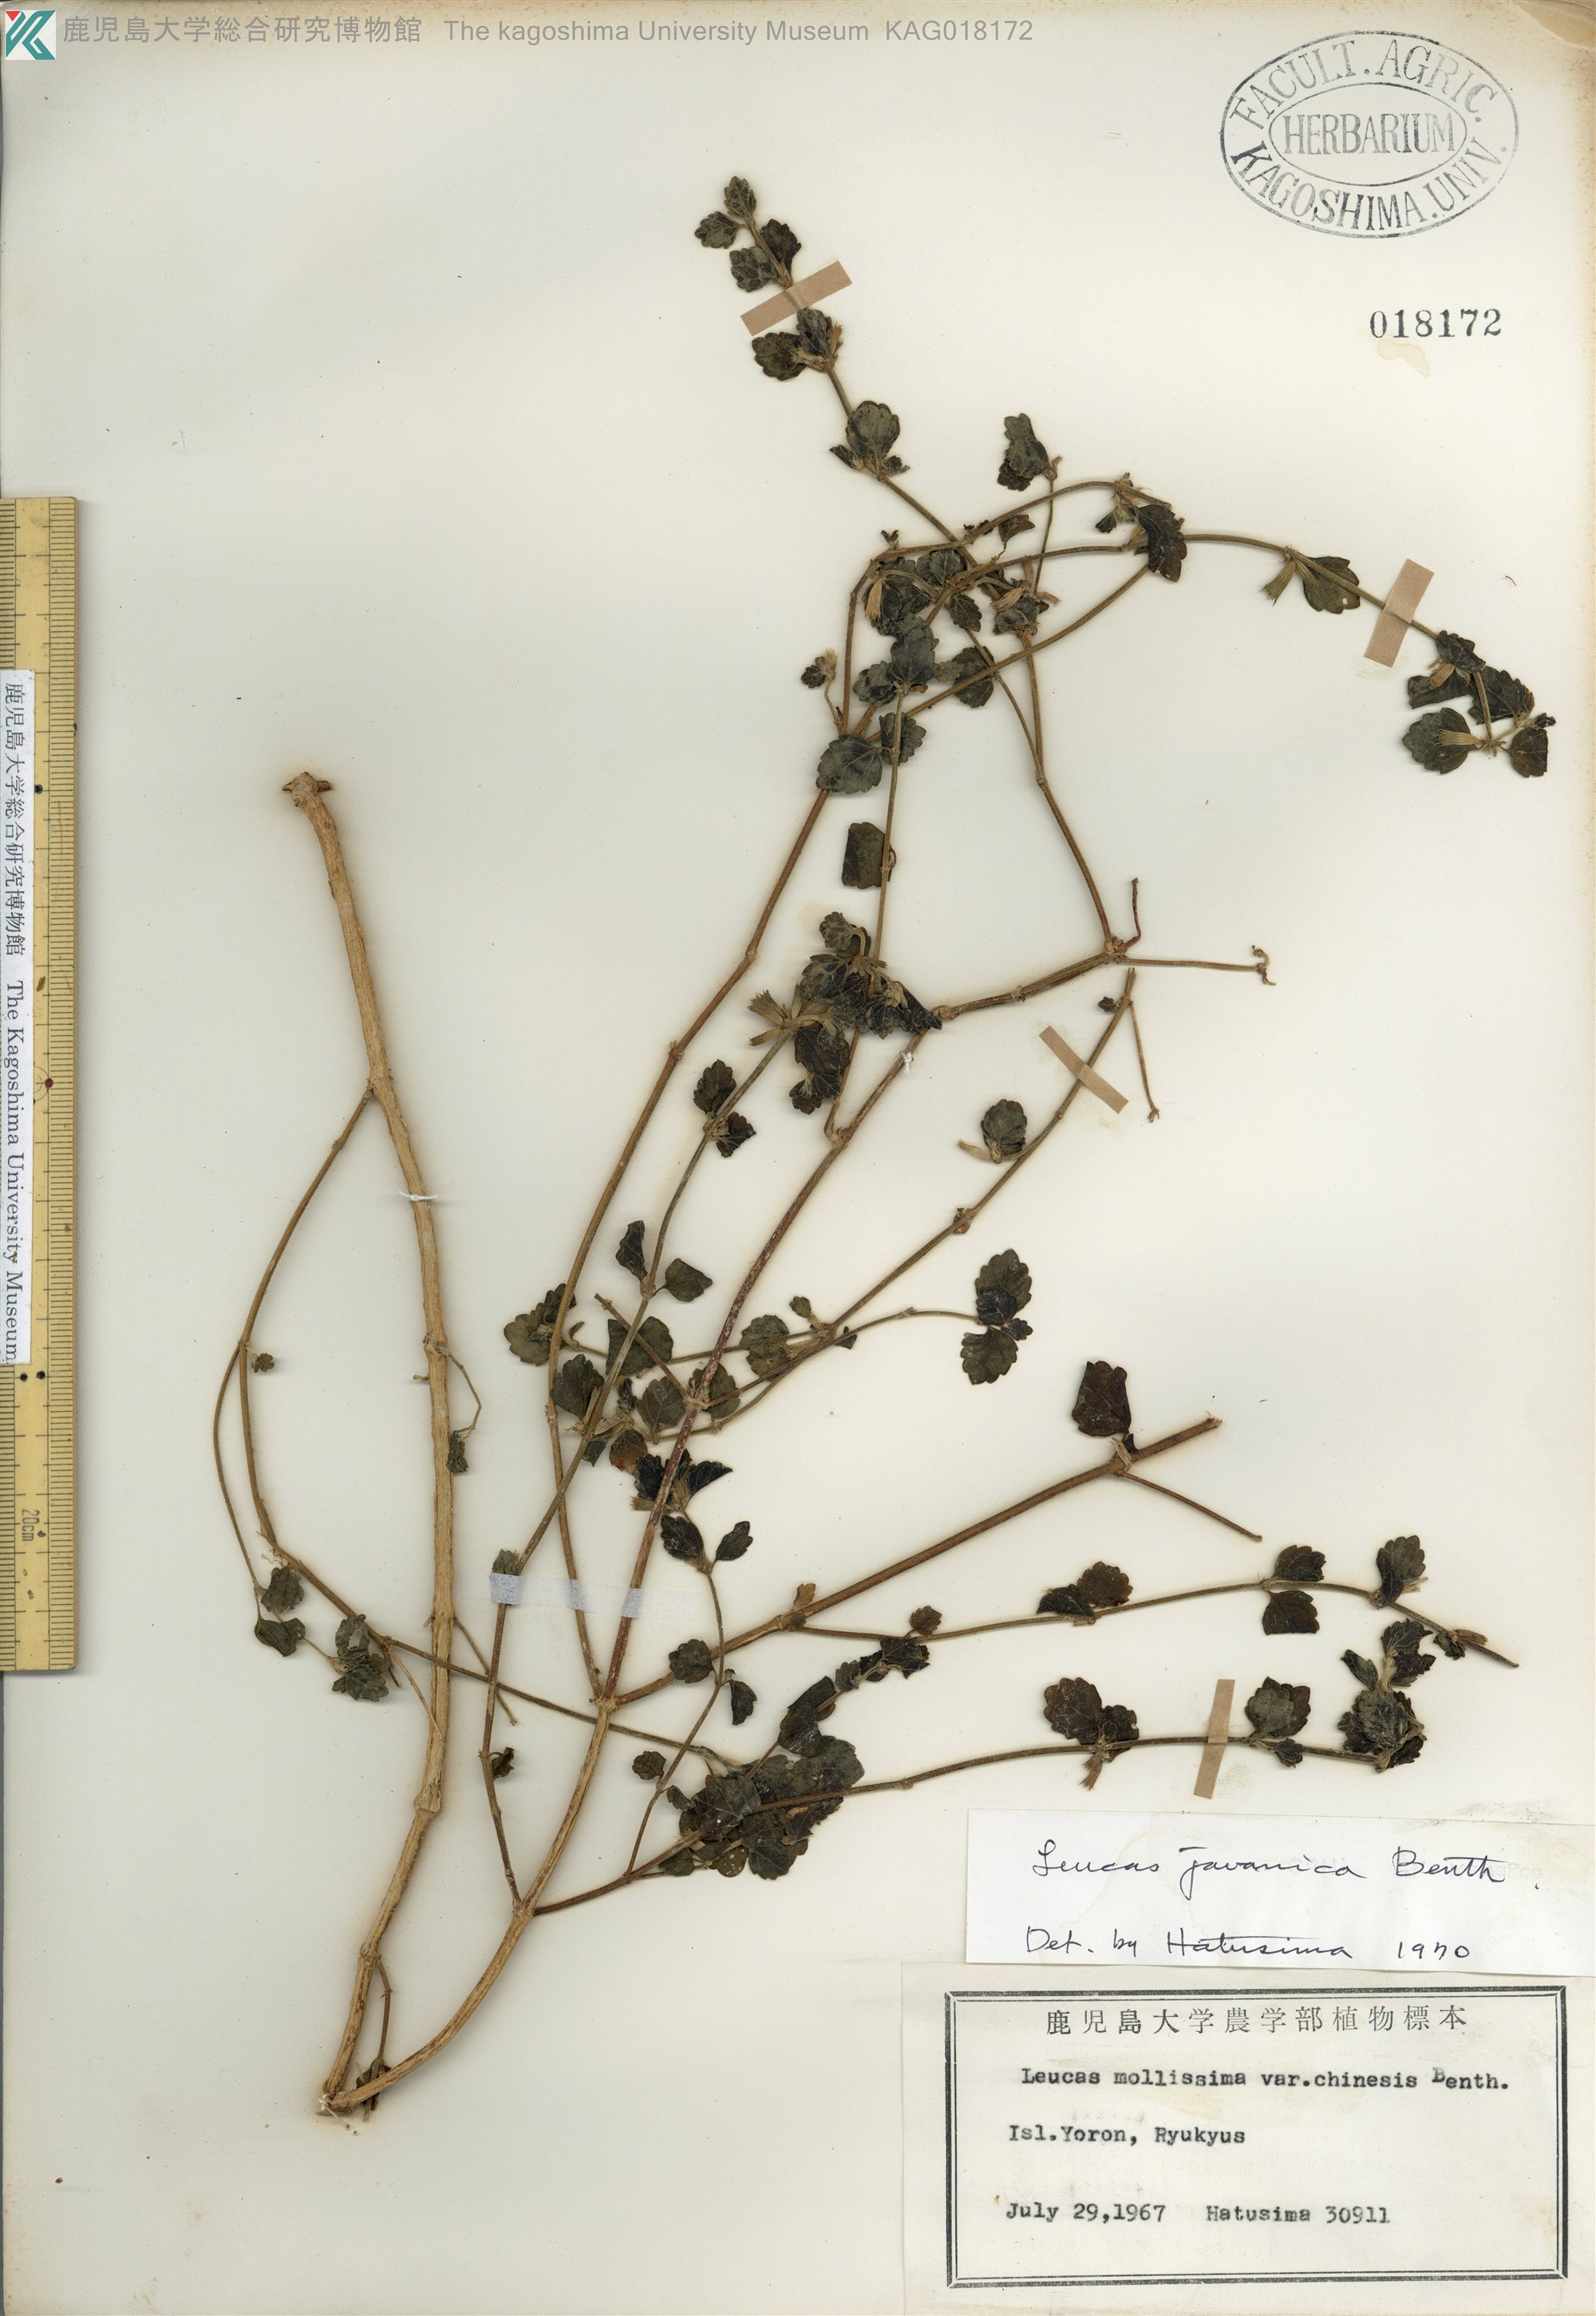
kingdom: Plantae
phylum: Tracheophyta
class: Magnoliopsida
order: Lamiales
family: Lamiaceae
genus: Leucas
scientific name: Leucas chinensis
